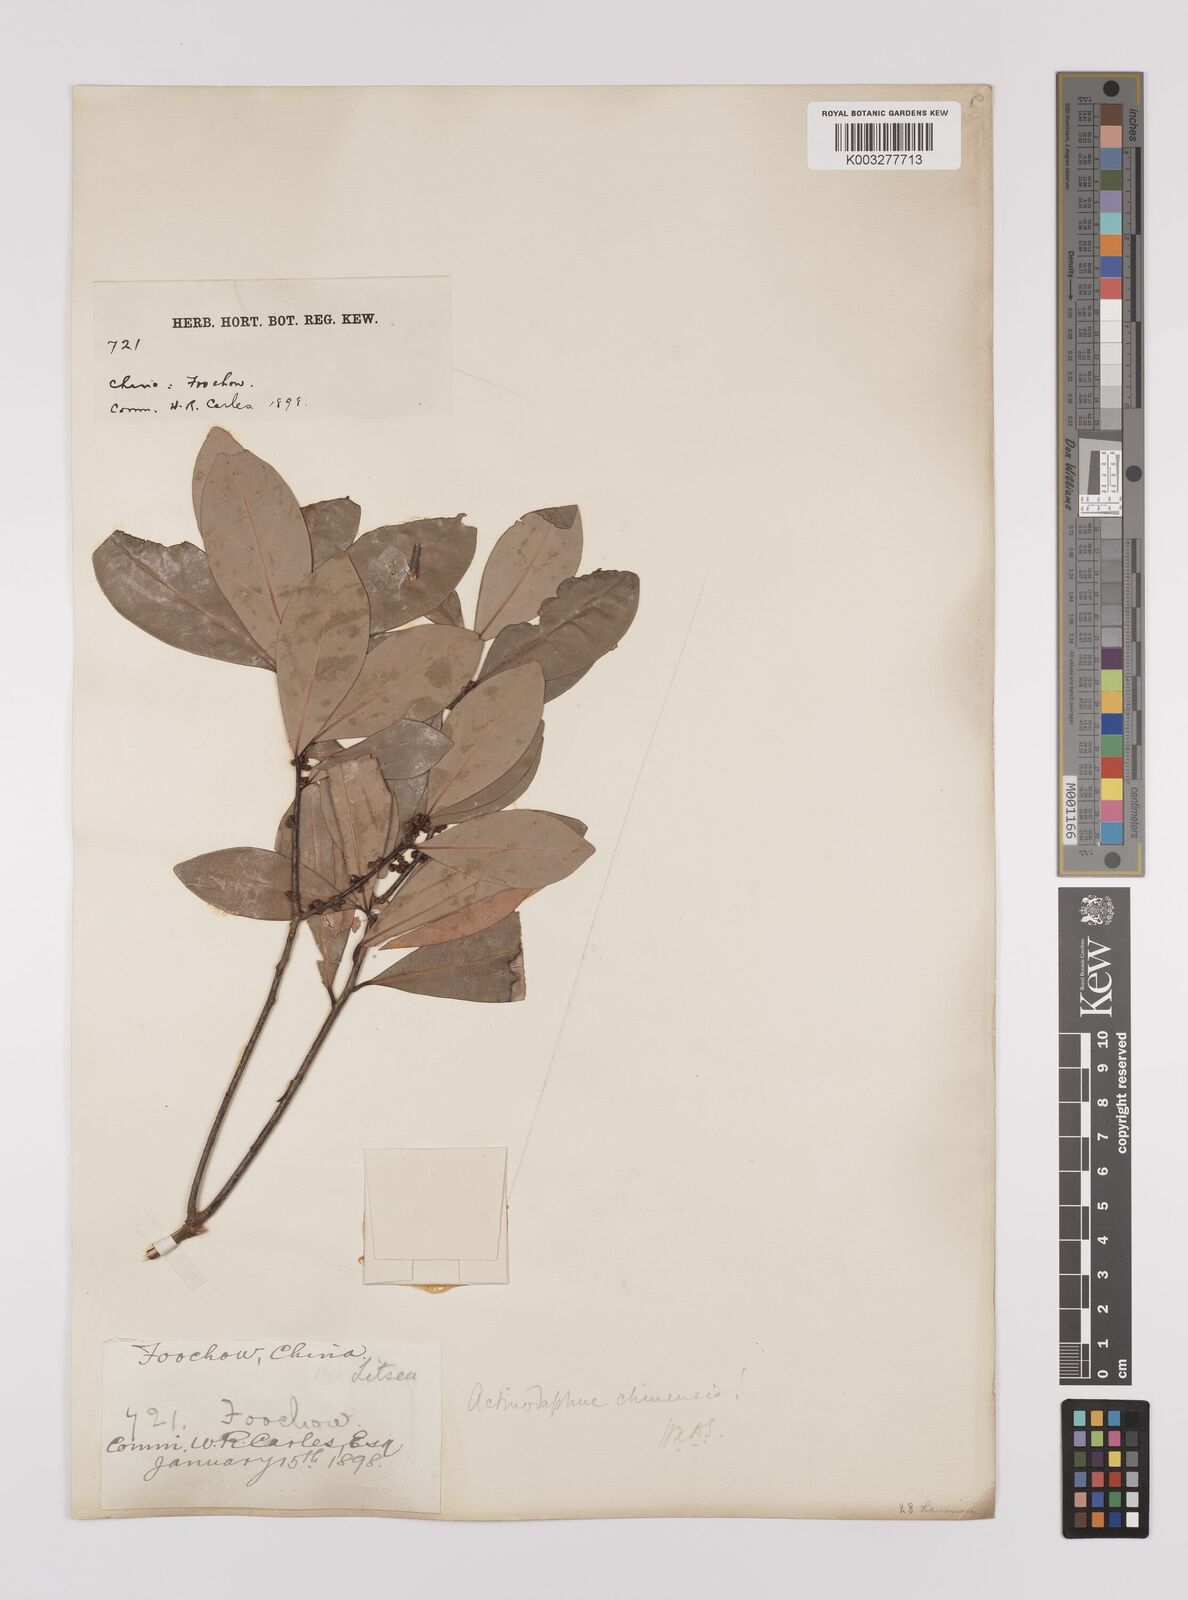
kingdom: Plantae
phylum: Tracheophyta
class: Magnoliopsida
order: Laurales
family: Lauraceae
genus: Litsea
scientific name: Litsea rotundifolia
